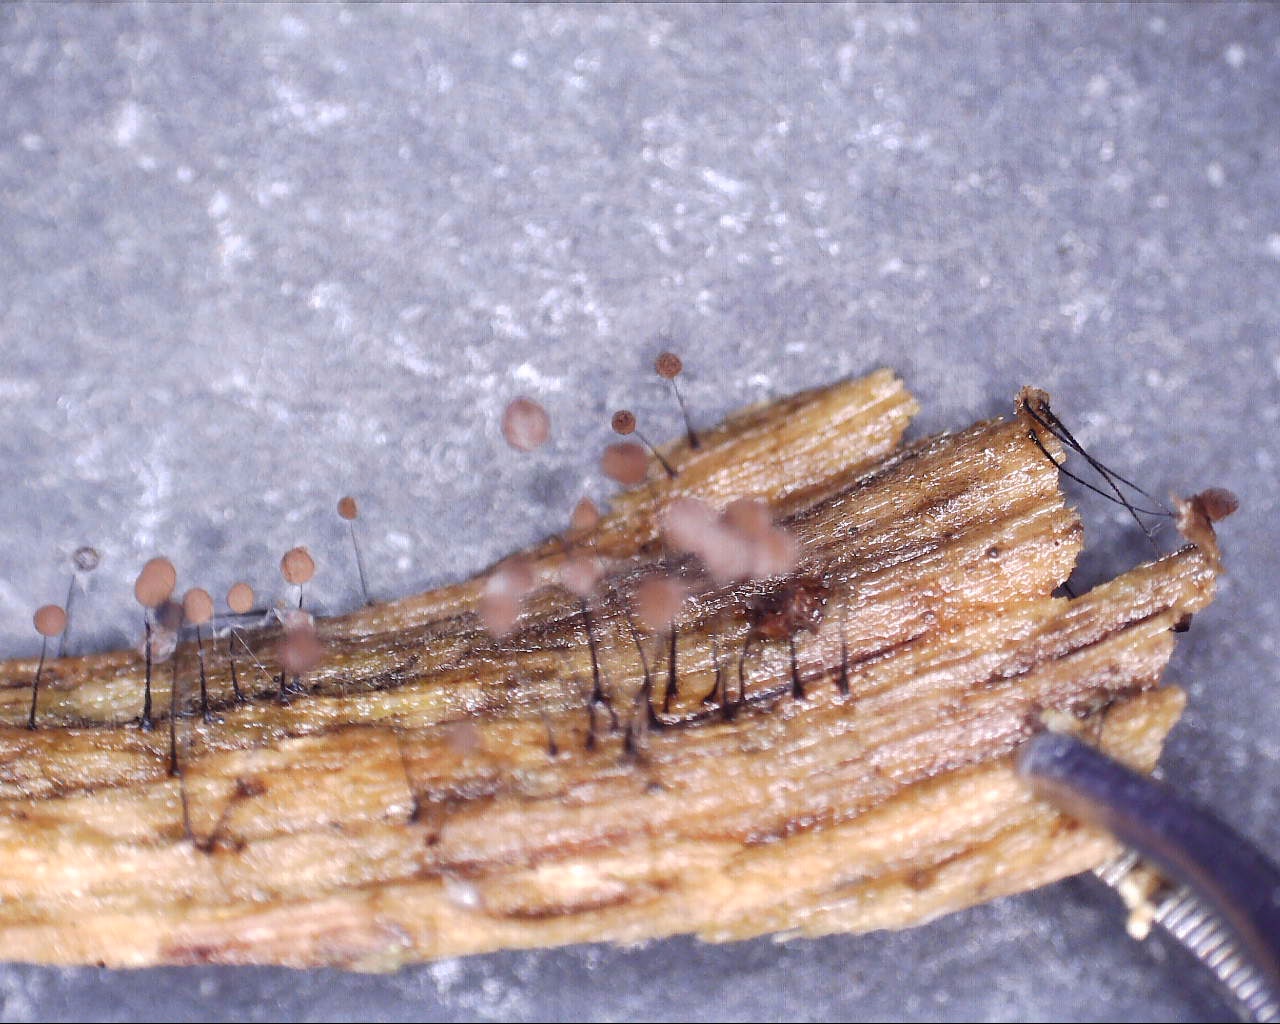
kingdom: Protozoa
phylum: Mycetozoa
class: Myxomycetes
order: Stemonitidales
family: Stemonitidaceae
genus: Comatricha
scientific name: Comatricha nigra
